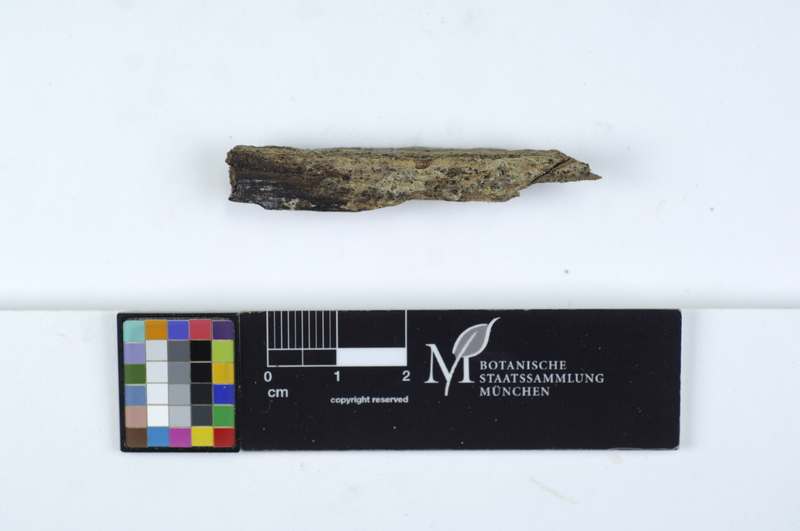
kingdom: Plantae
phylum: Tracheophyta
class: Magnoliopsida
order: Fagales
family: Fagaceae
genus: Fagus
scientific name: Fagus sylvatica
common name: Beech
